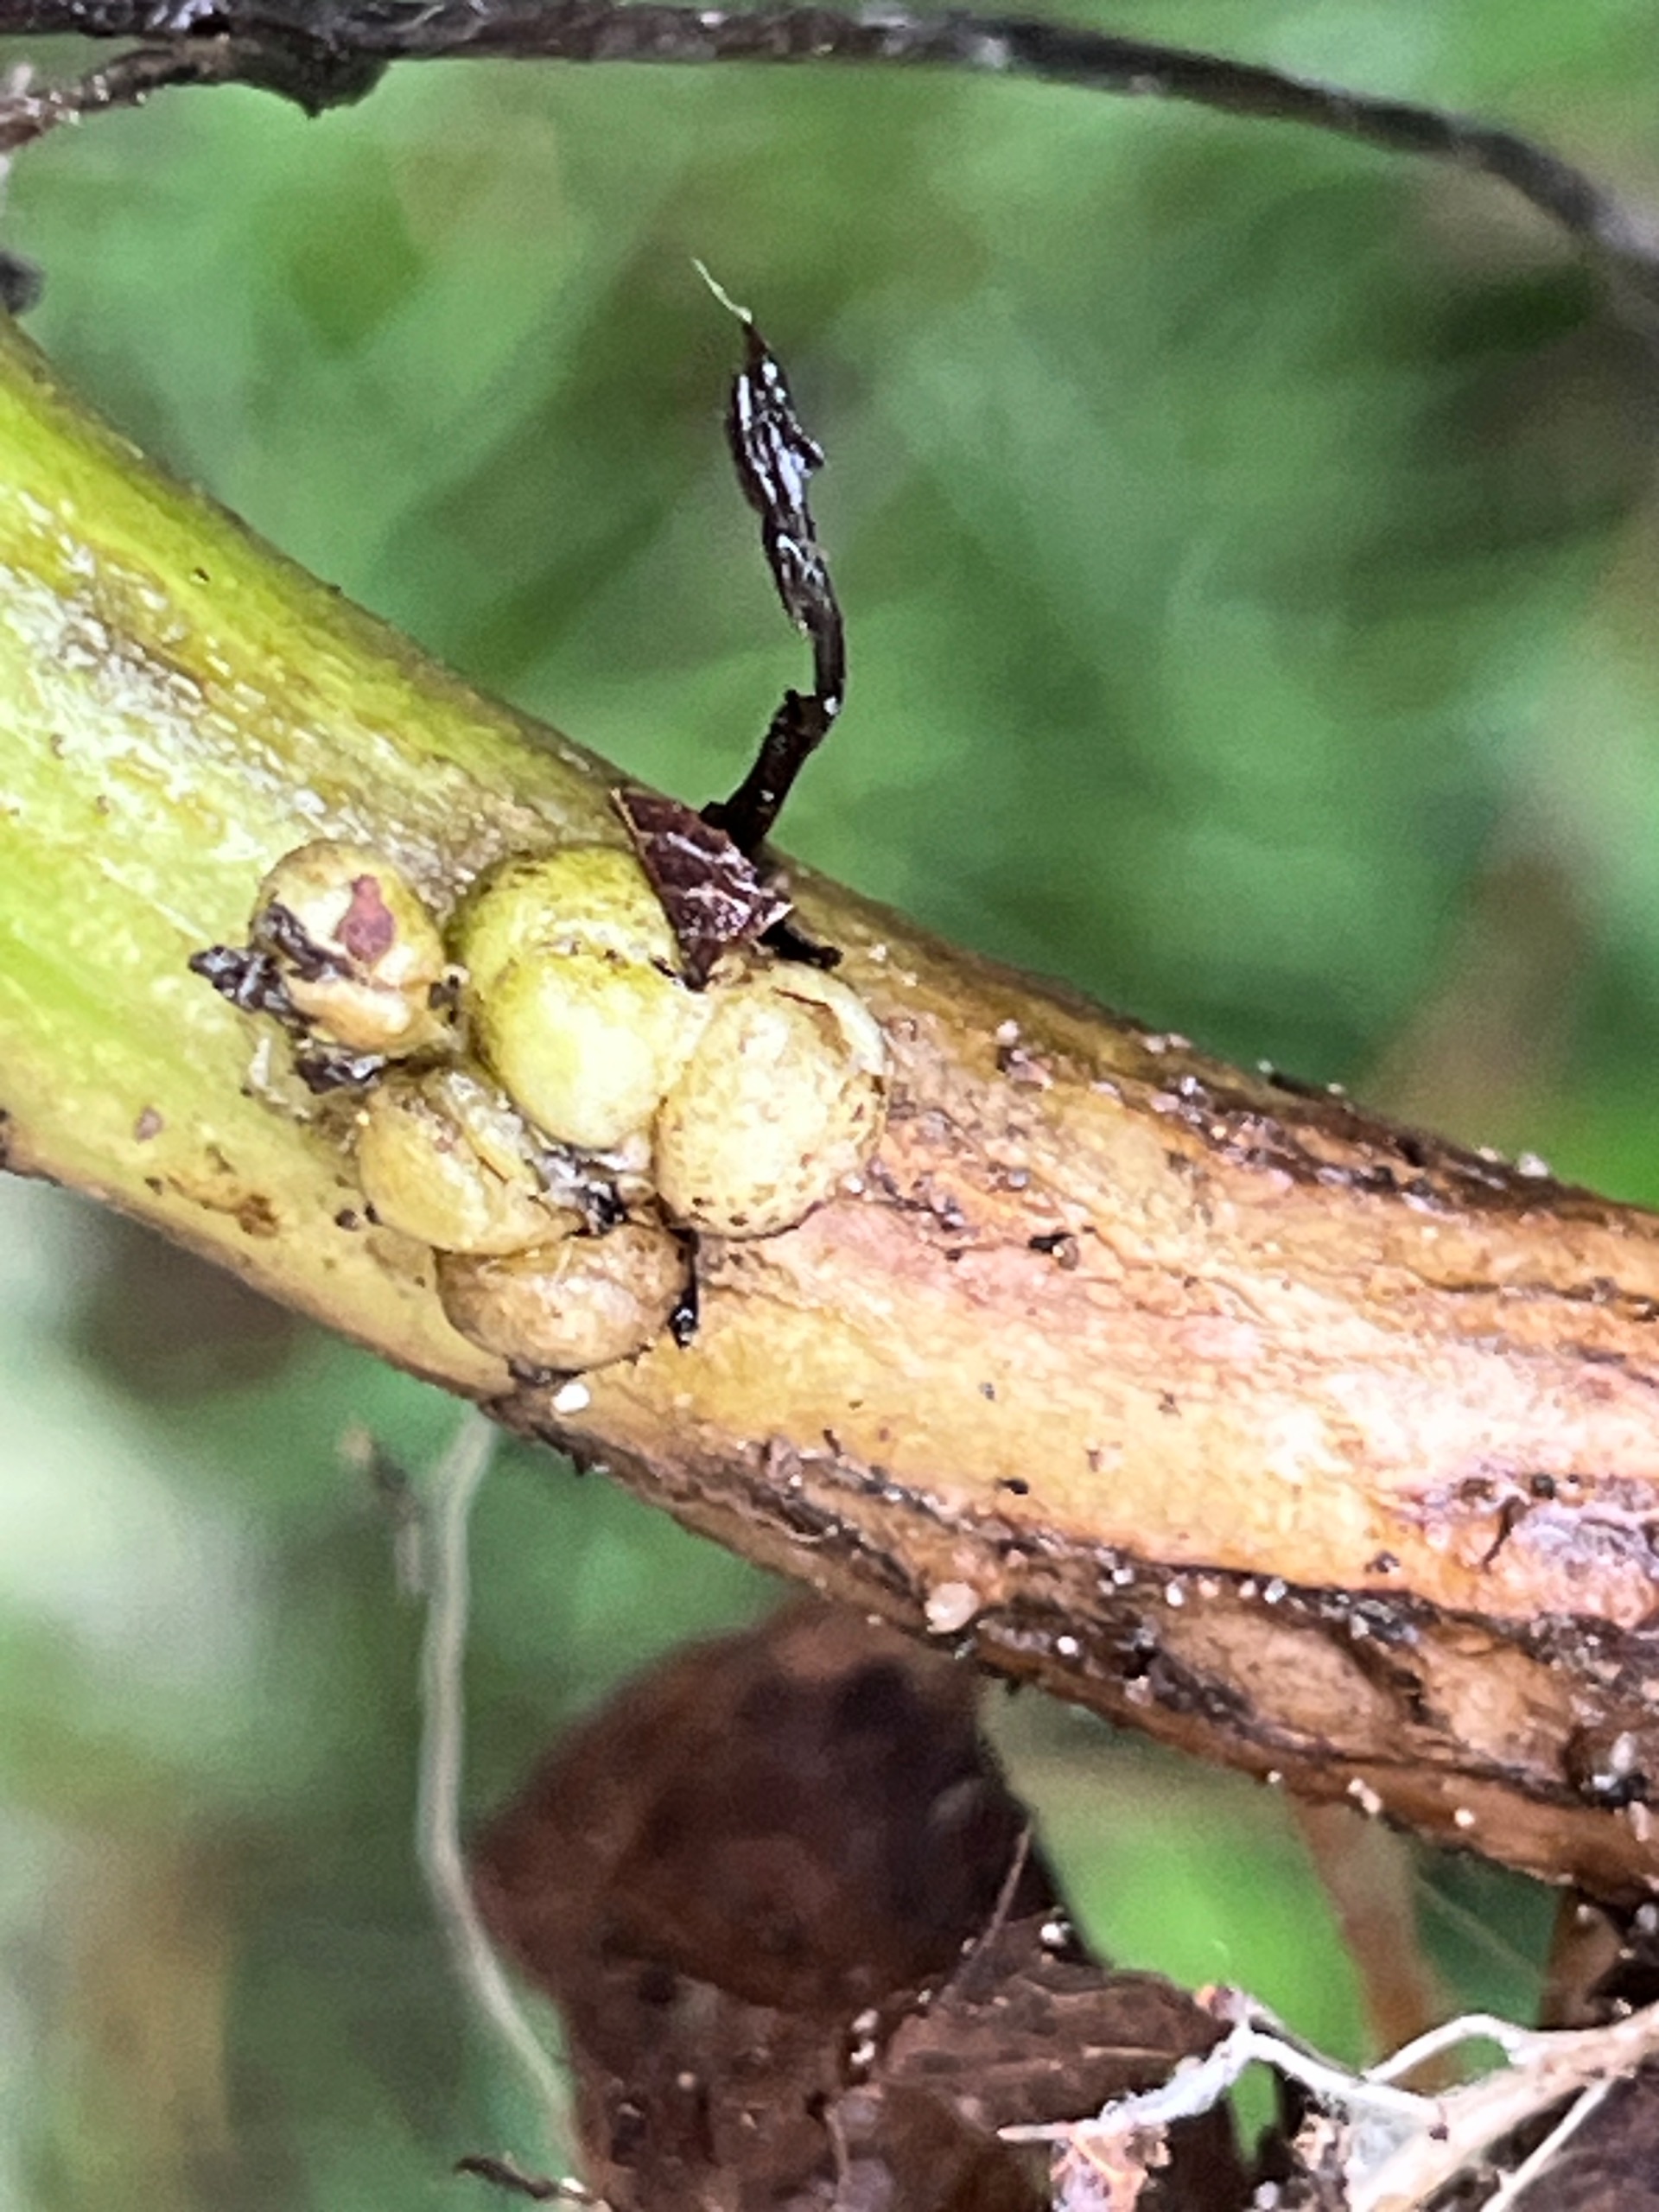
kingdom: Animalia
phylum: Arthropoda
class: Insecta
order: Diptera
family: Cecidomyiidae
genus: Rhopalomyia
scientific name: Rhopalomyia baccarum
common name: Bynkerodhalsgalmyg
